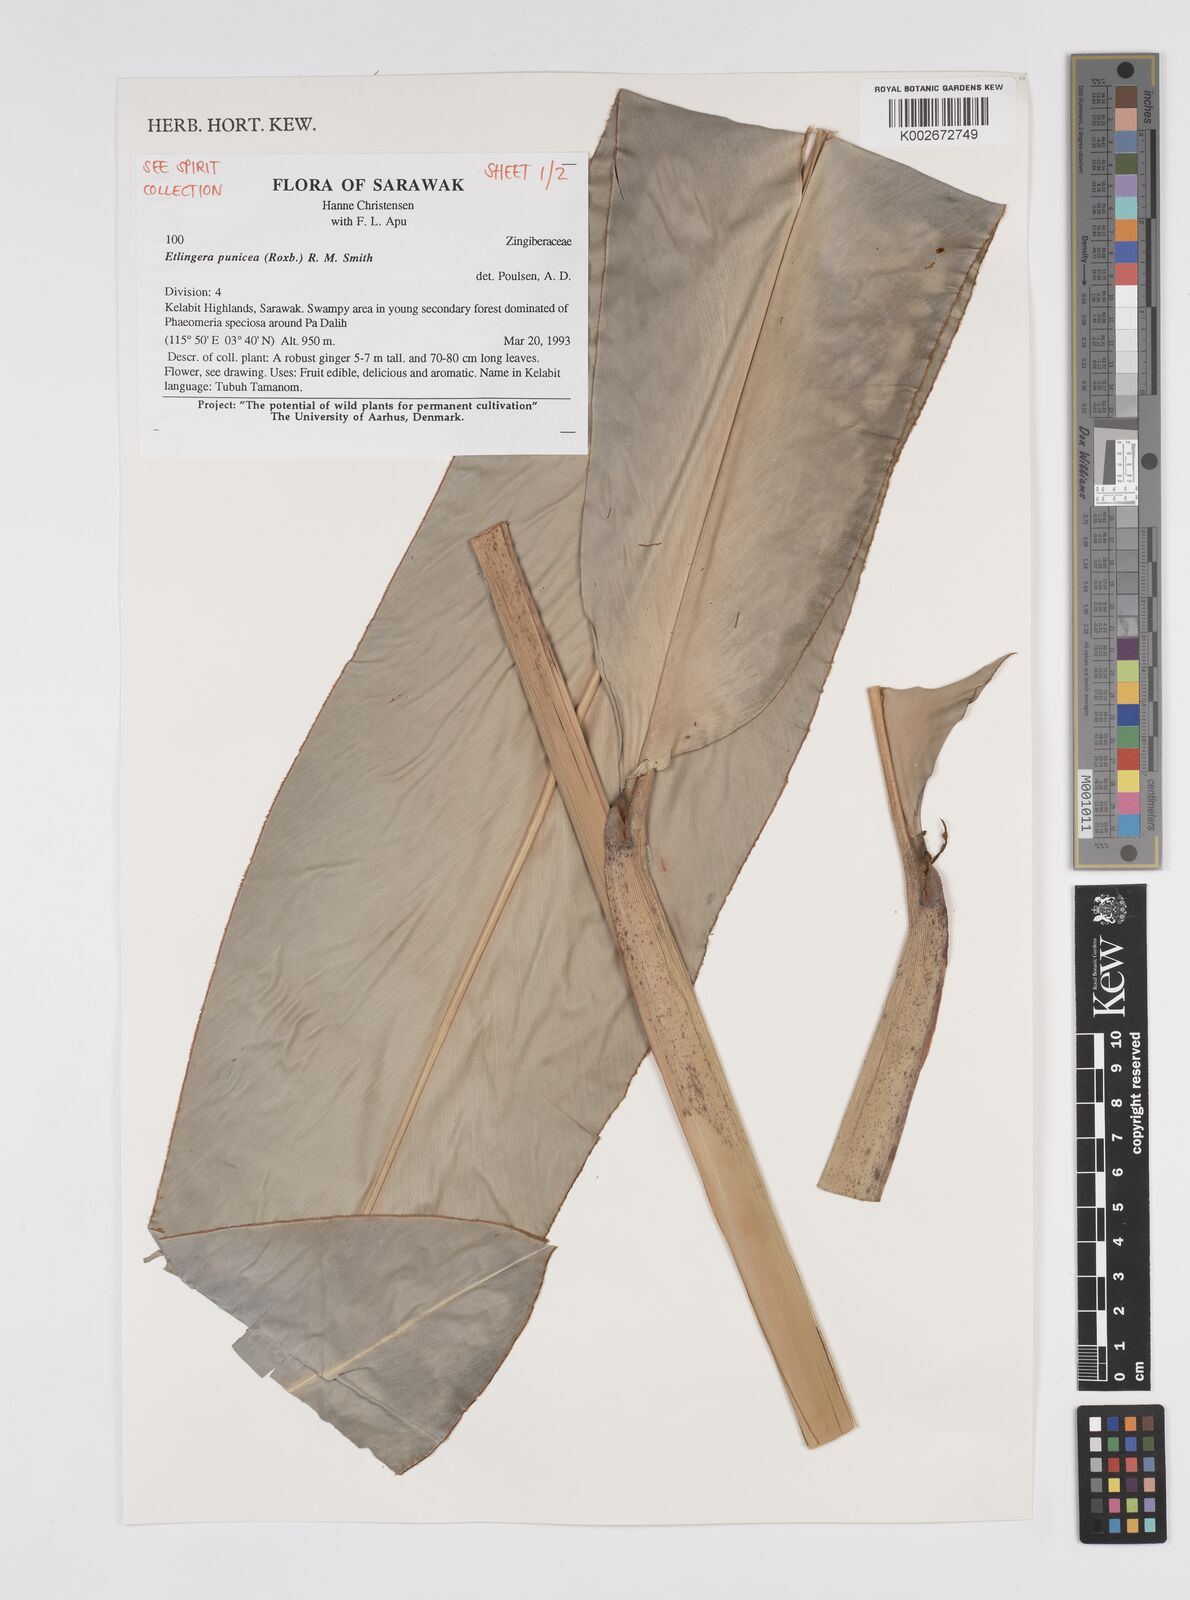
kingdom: Plantae
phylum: Tracheophyta
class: Liliopsida
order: Zingiberales
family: Zingiberaceae
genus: Etlingera
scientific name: Etlingera punicea
